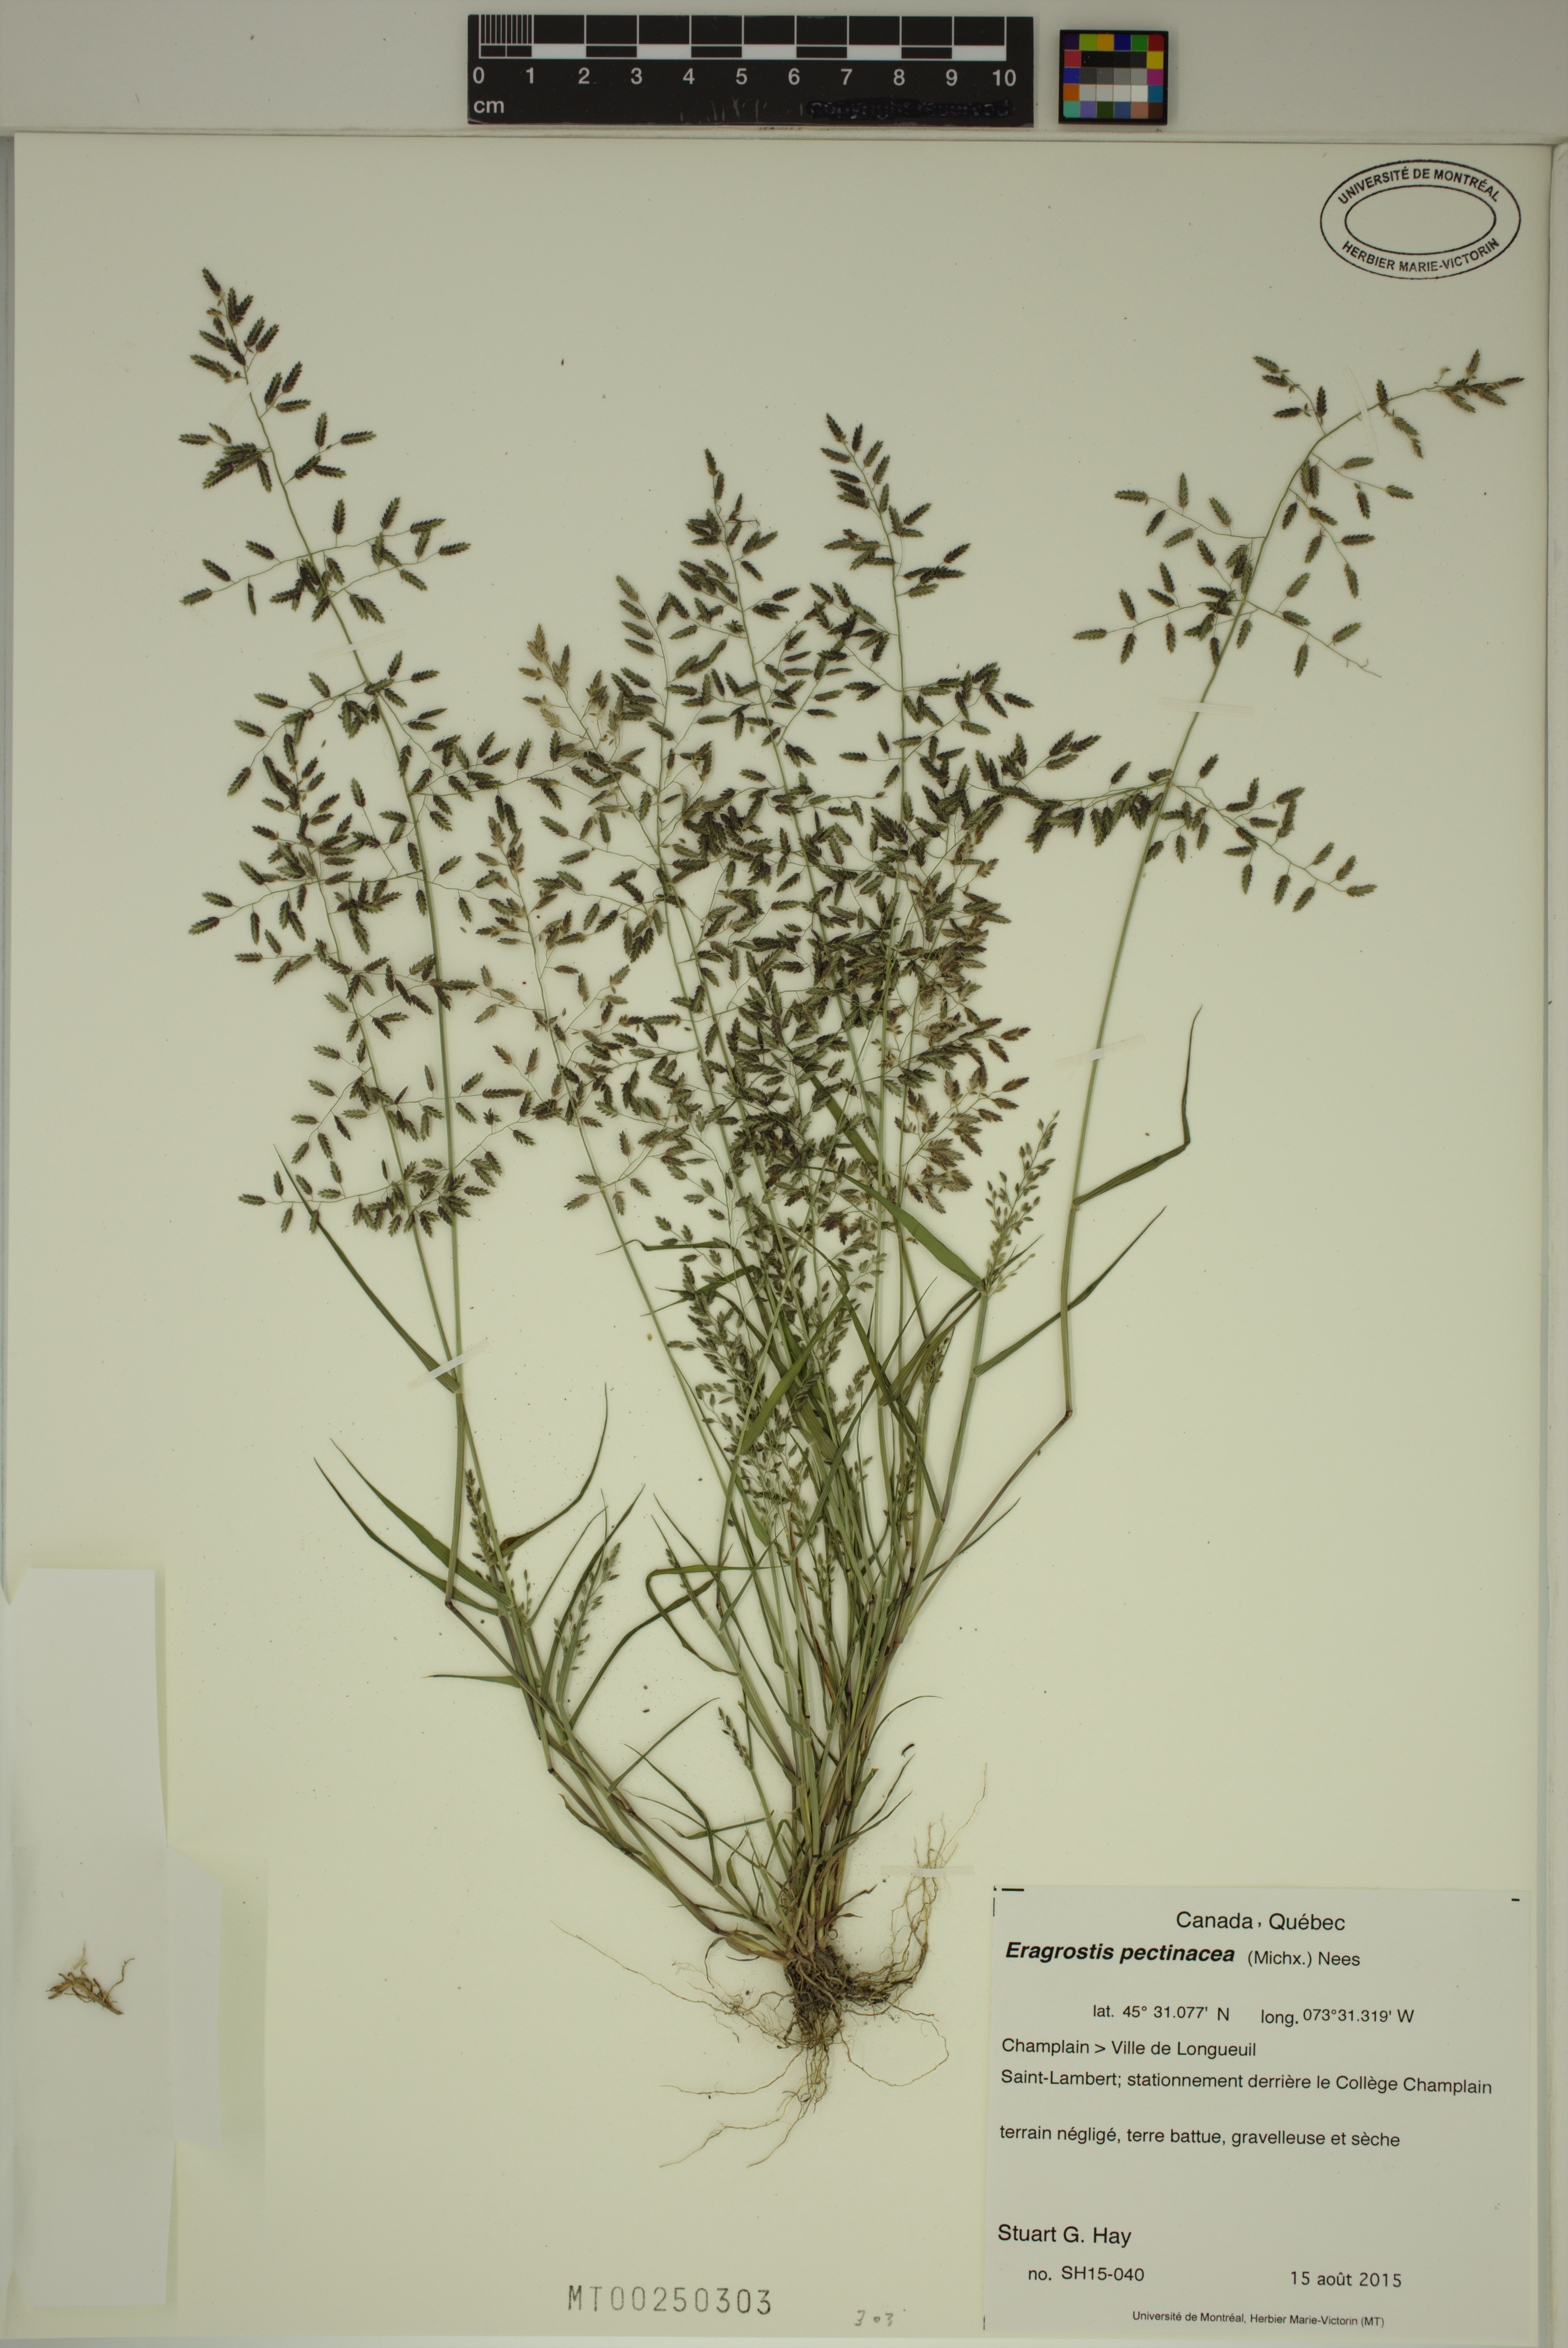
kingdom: Plantae
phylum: Tracheophyta
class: Liliopsida
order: Poales
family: Poaceae
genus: Eragrostis
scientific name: Eragrostis pectinacea
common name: Tufted lovegrass
